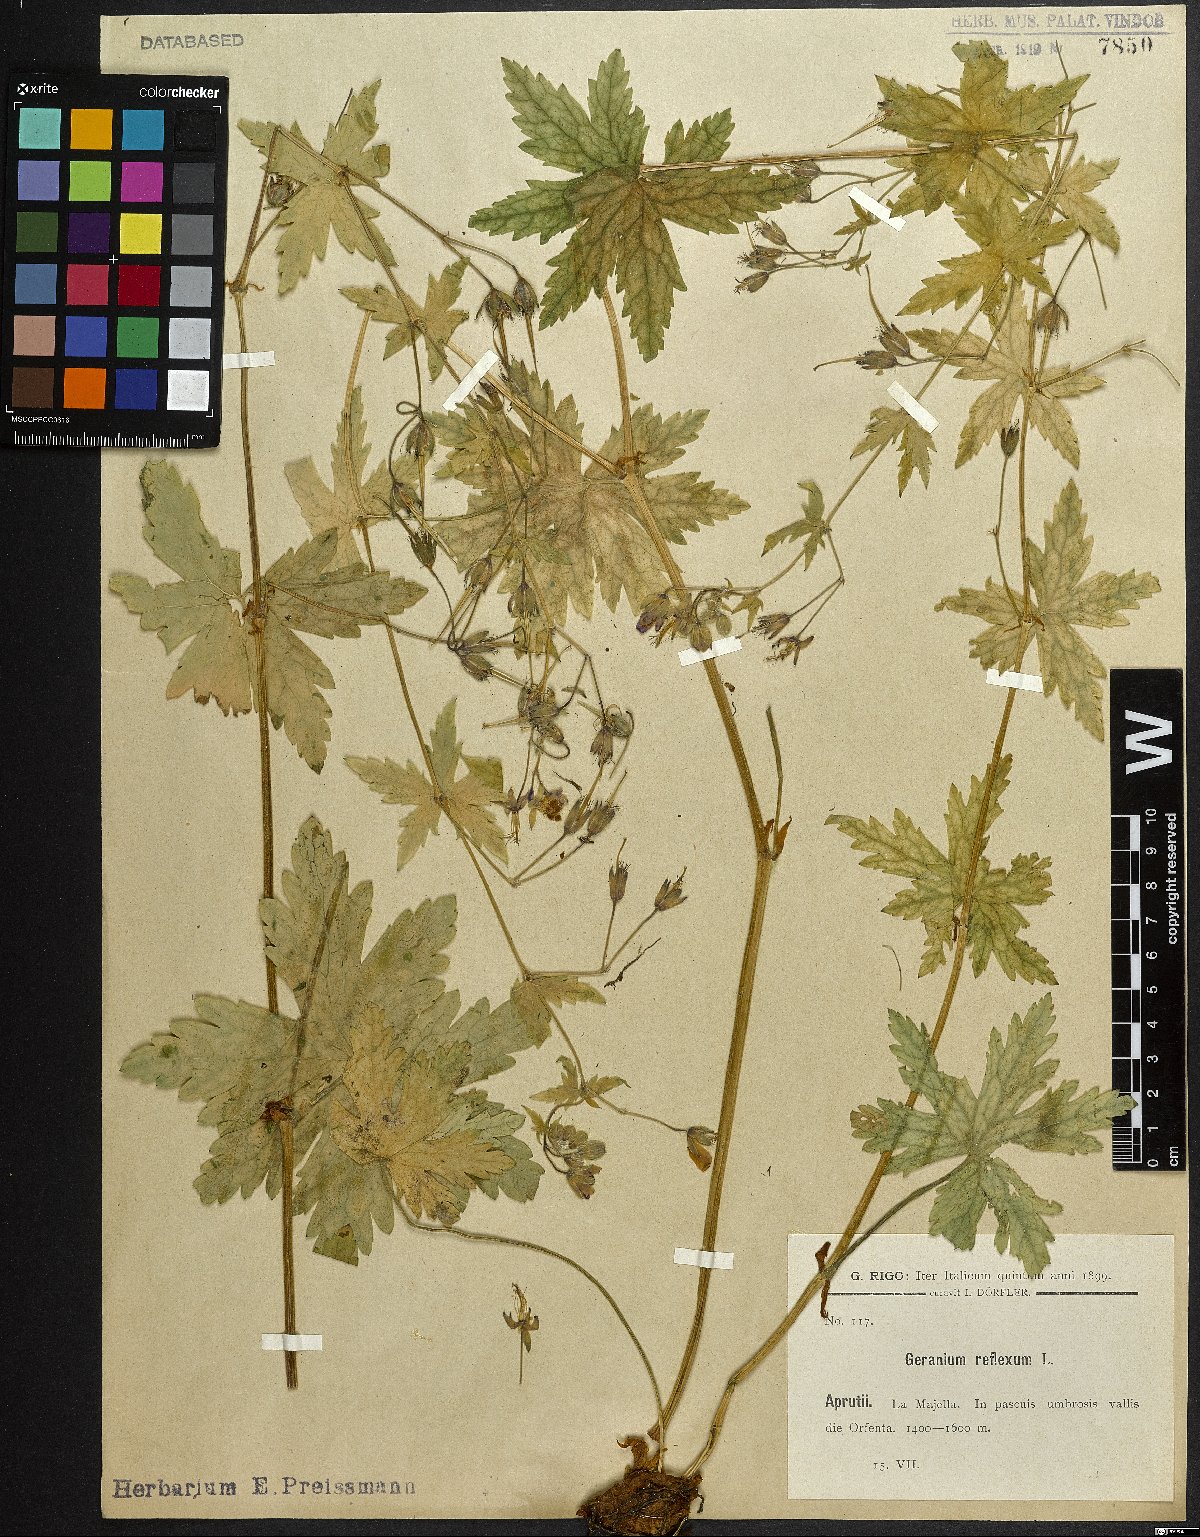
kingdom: Plantae
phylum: Tracheophyta
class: Magnoliopsida
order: Geraniales
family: Geraniaceae
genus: Geranium
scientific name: Geranium reflexum
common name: Reflexed crane's-bill
